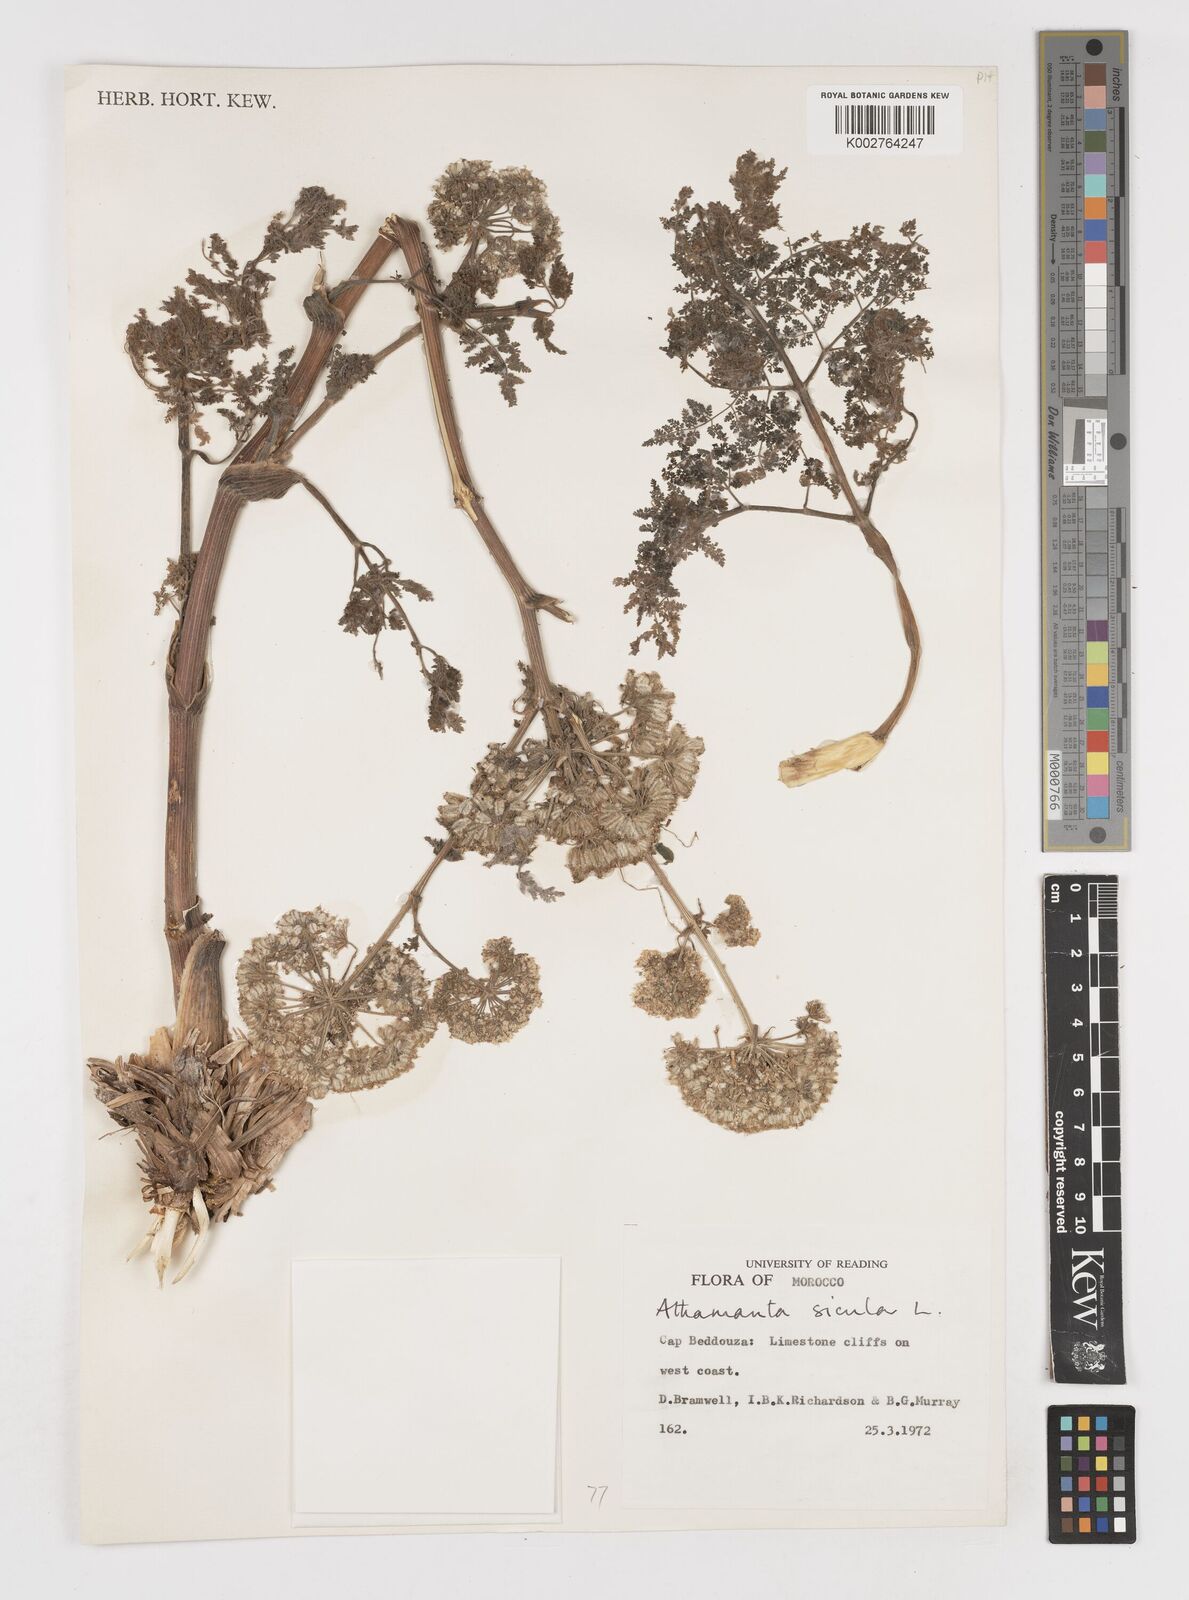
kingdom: Plantae
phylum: Tracheophyta
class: Magnoliopsida
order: Apiales
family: Apiaceae
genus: Athamanta
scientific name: Athamanta sicula
